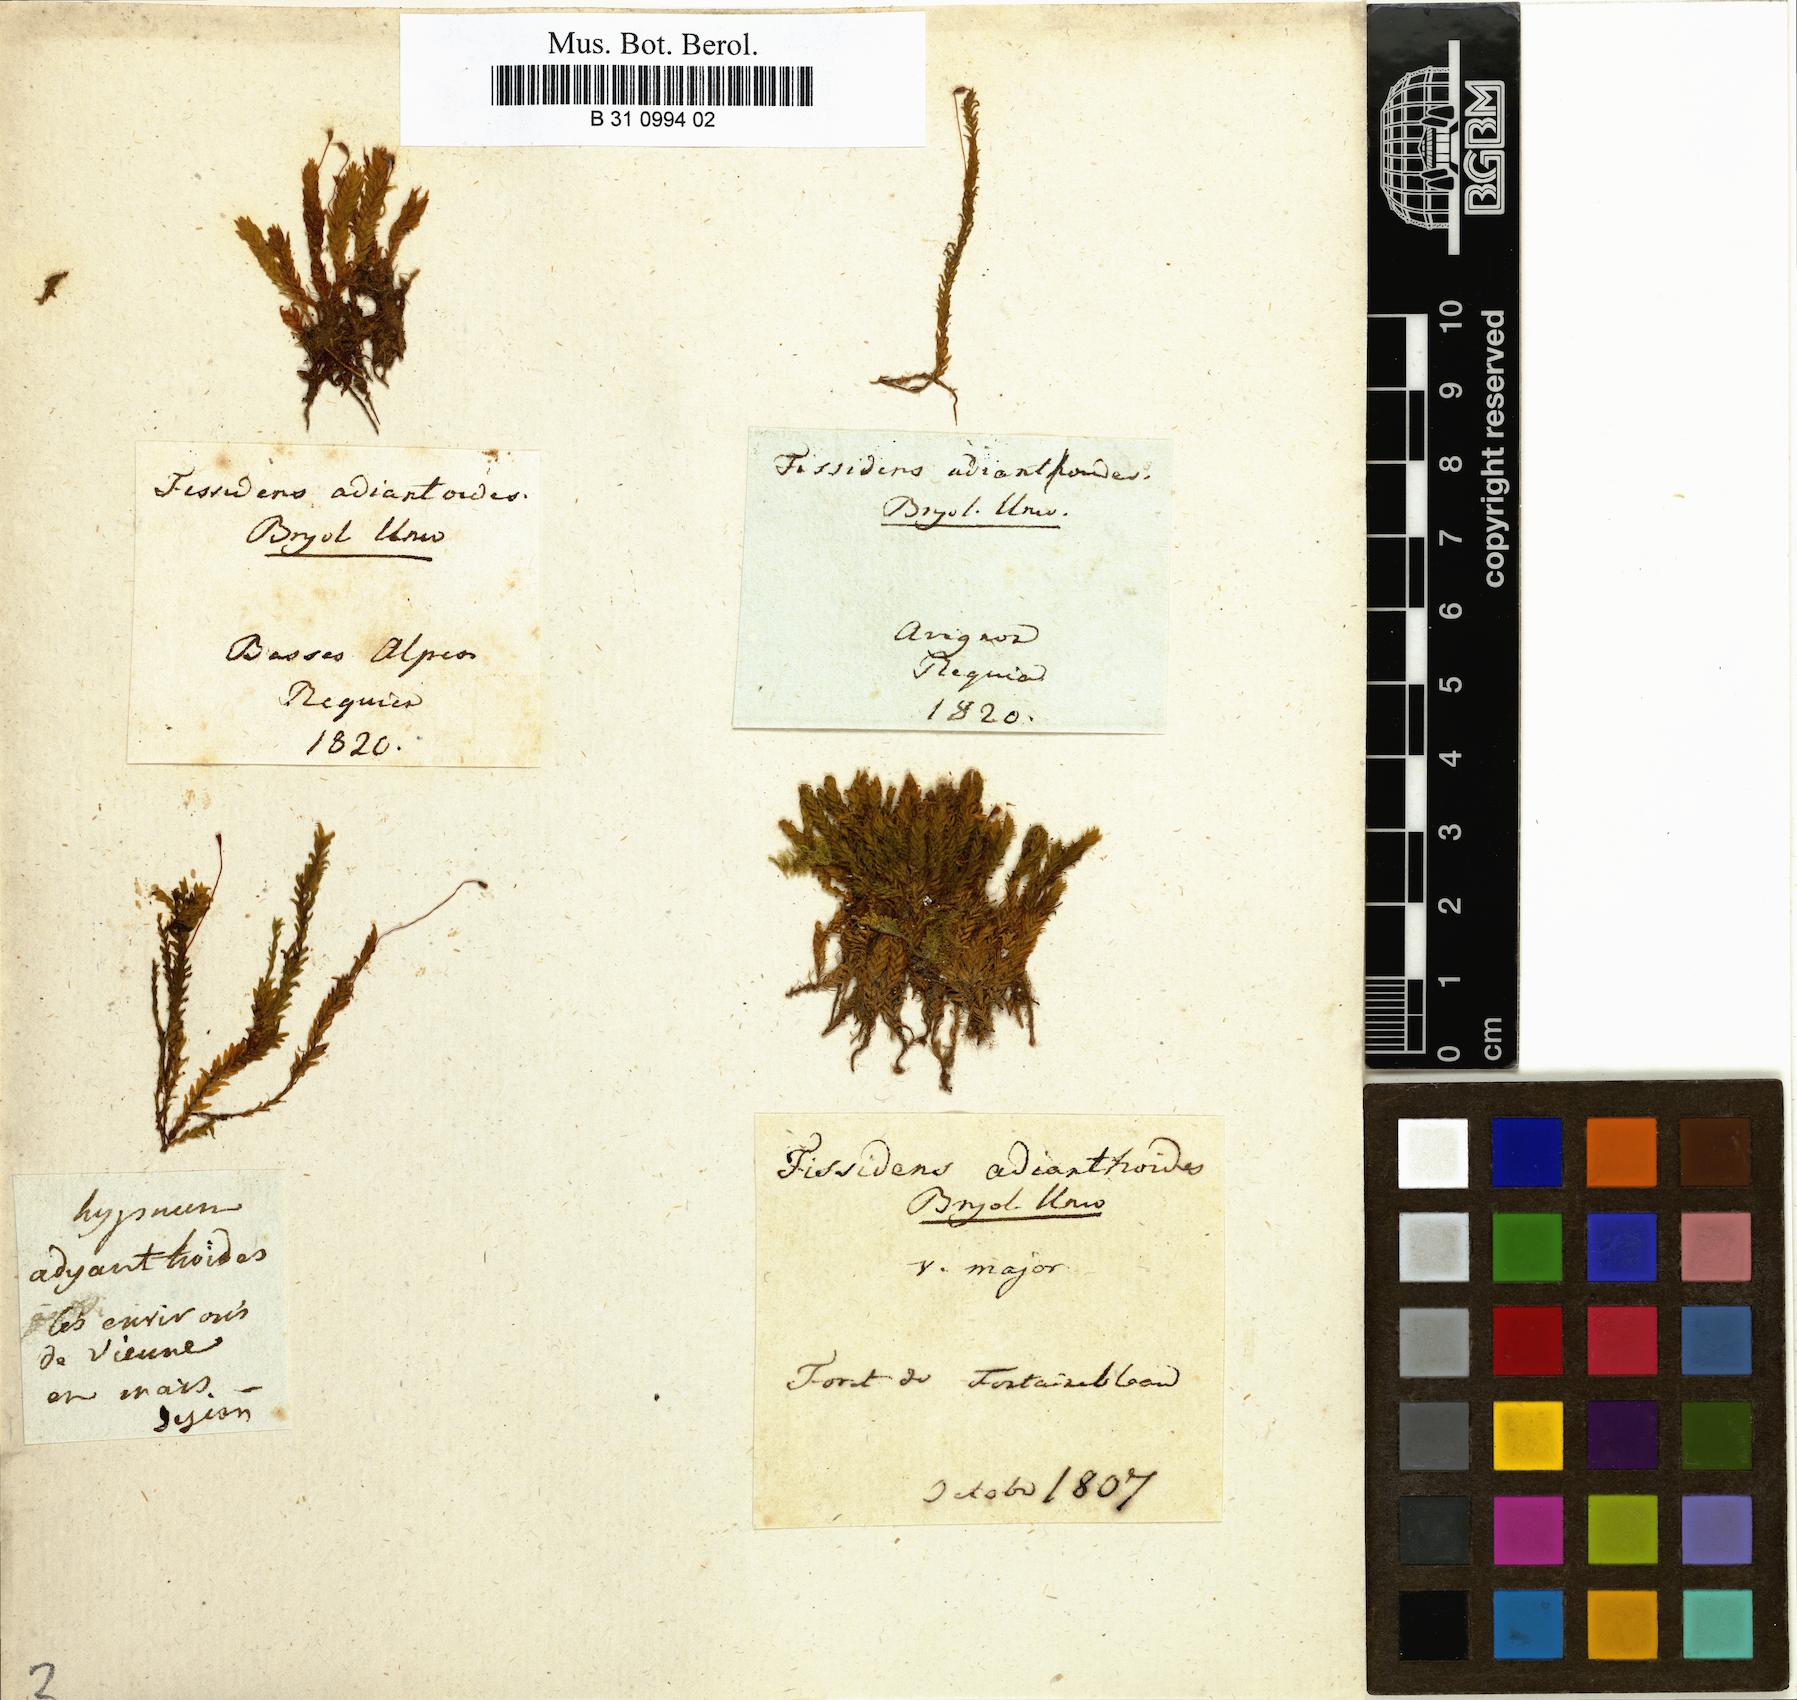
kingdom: Plantae
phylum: Bryophyta
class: Bryopsida
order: Dicranales
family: Fissidentaceae
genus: Fissidens
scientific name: Fissidens adianthoides
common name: Maidenhair pocket moss
